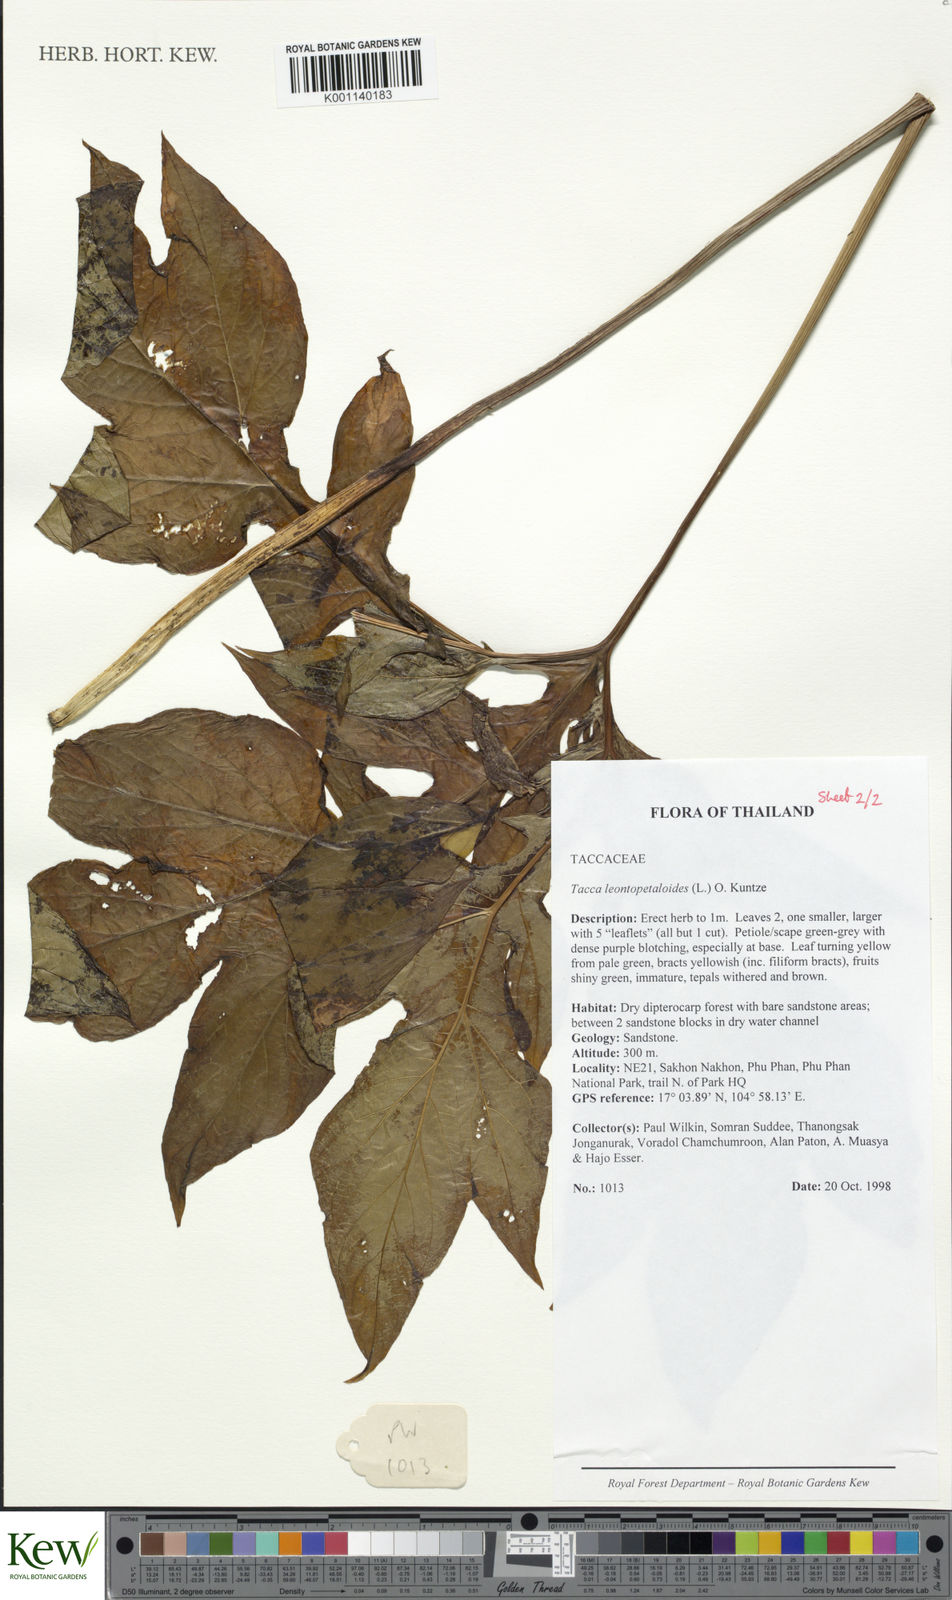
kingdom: Plantae
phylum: Tracheophyta
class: Liliopsida
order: Dioscoreales
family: Dioscoreaceae
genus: Tacca
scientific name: Tacca leontopetaloides
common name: Arrowroot
